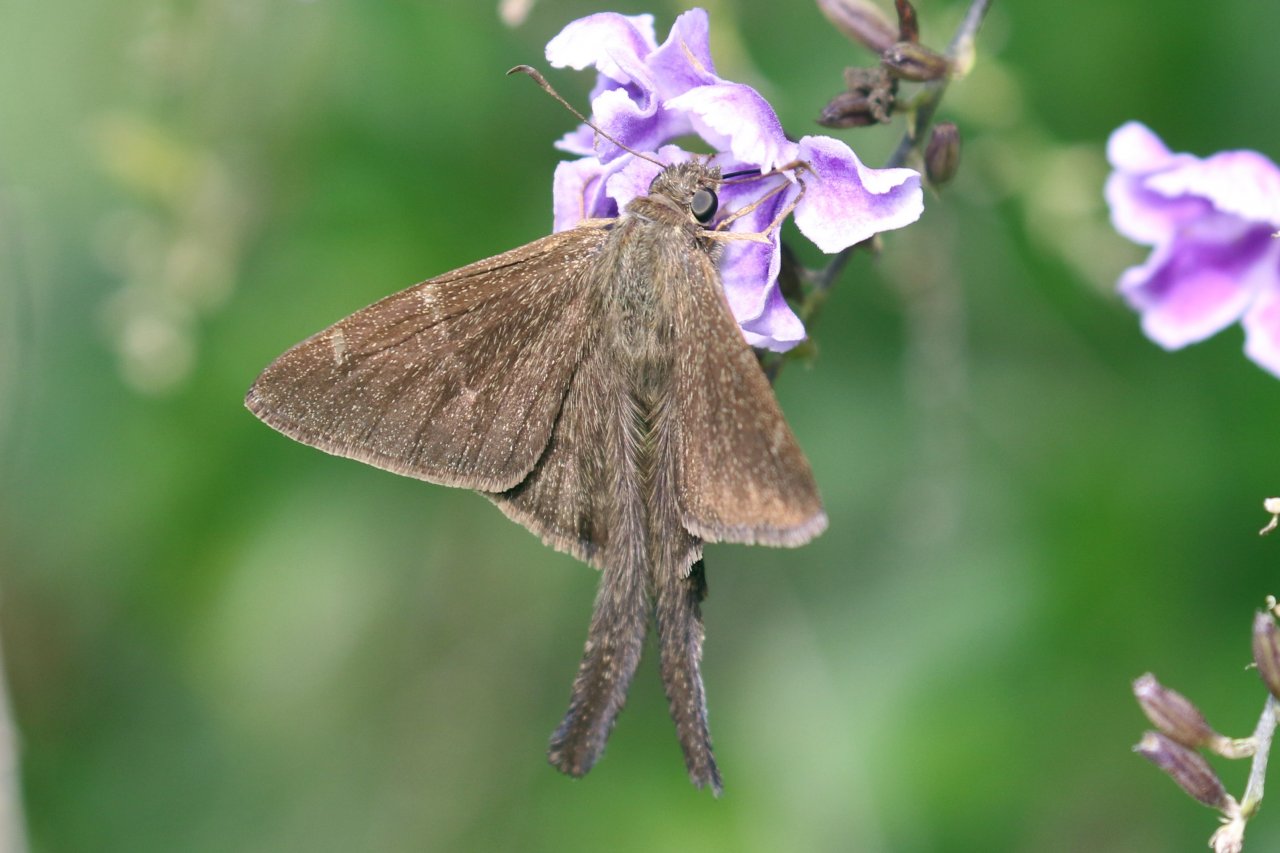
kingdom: Animalia
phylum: Arthropoda
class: Insecta
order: Lepidoptera
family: Hesperiidae
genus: Urbanus
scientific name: Urbanus procne
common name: Brown Longtail
